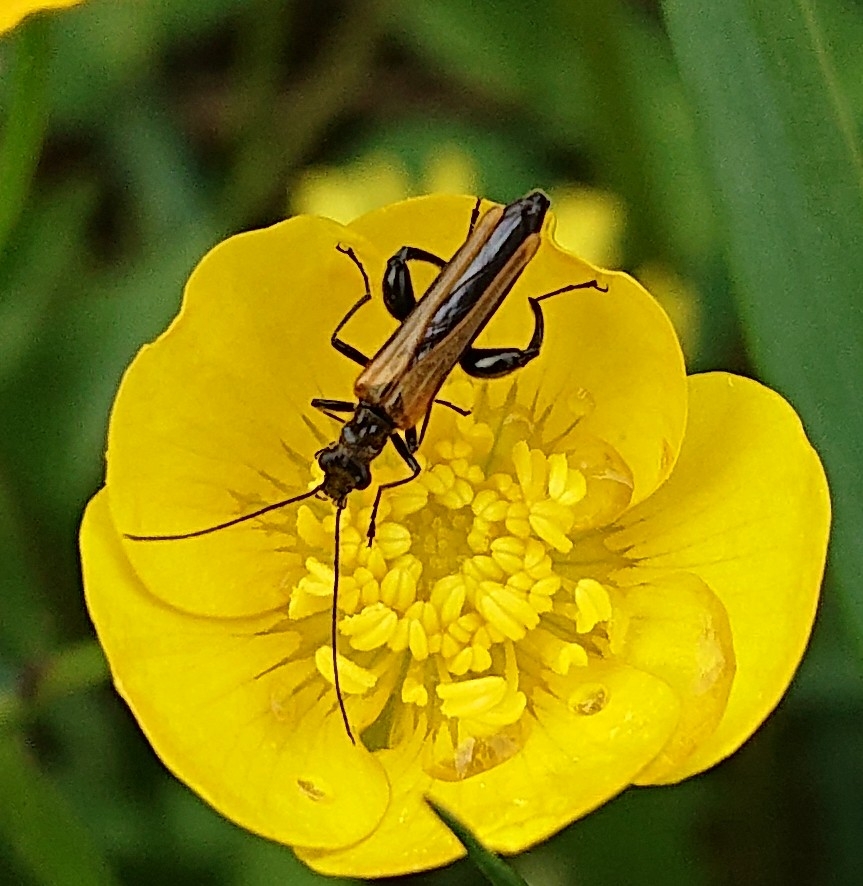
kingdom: Animalia
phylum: Arthropoda
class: Insecta
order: Coleoptera
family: Oedemeridae
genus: Oedemera
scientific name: Oedemera femorata
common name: Gulvinget solbille
